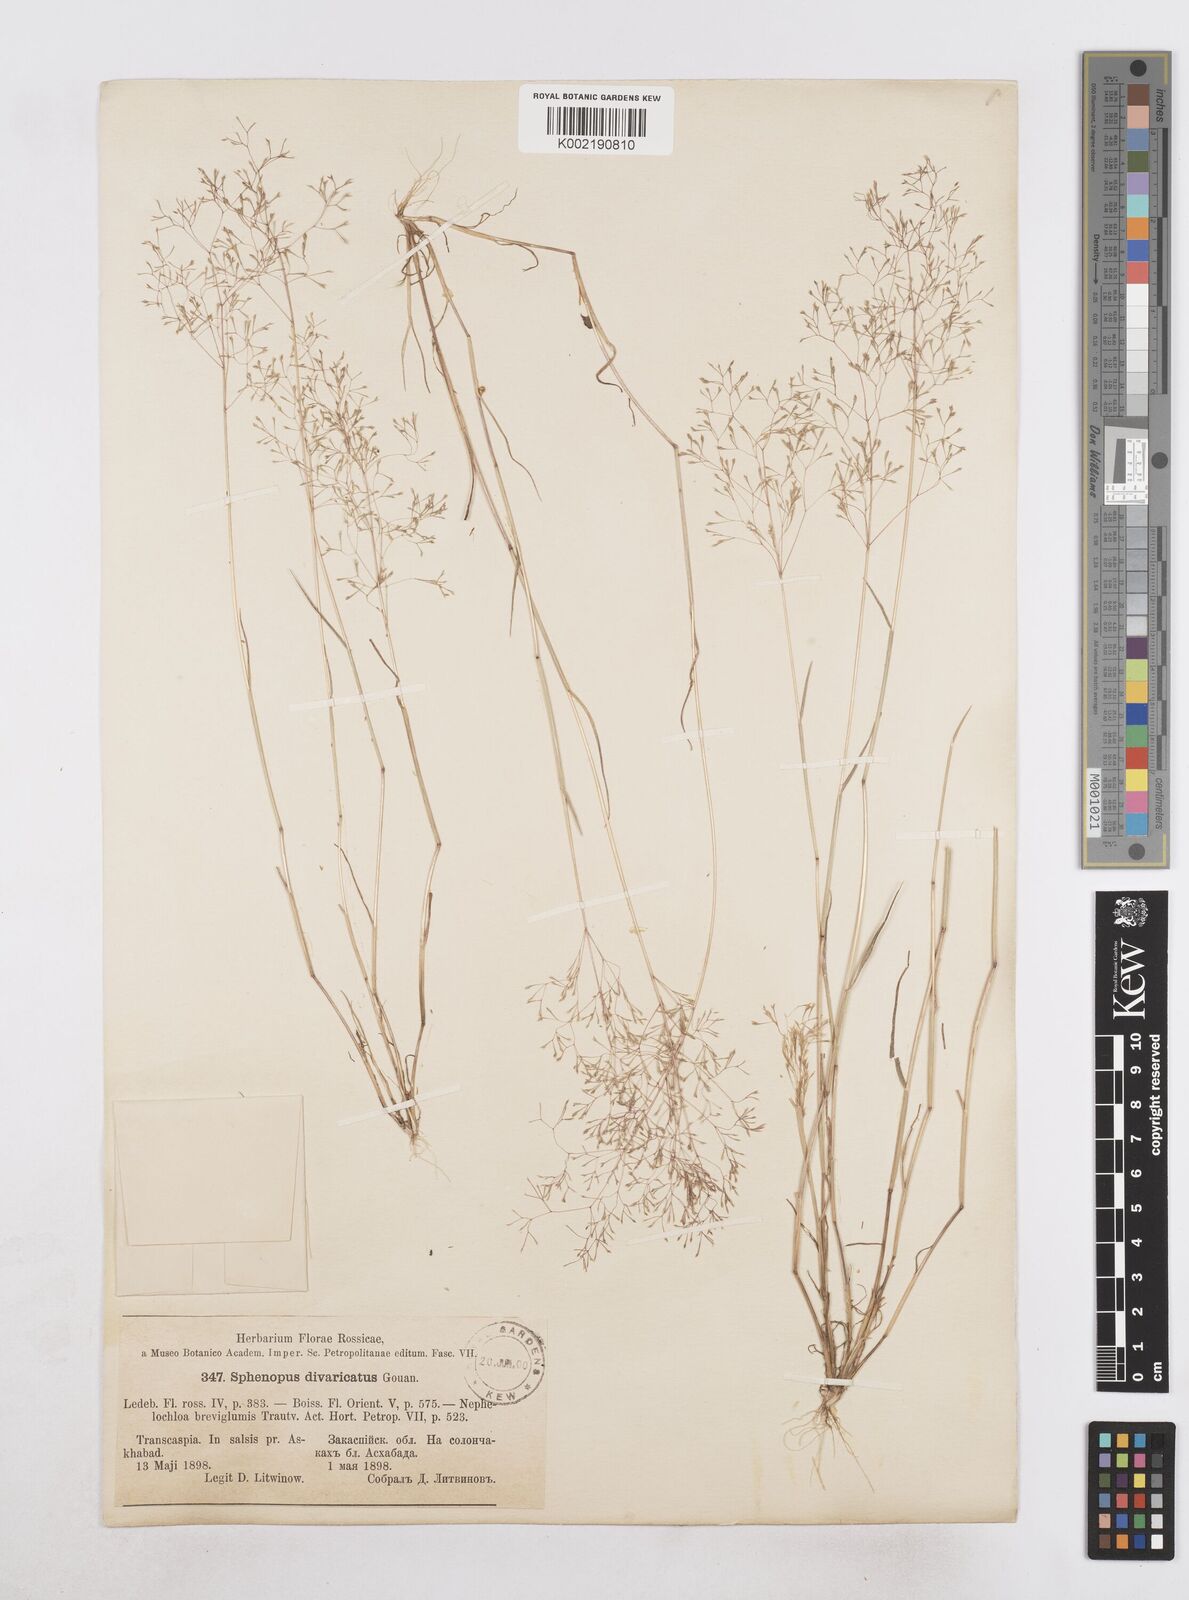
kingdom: Plantae
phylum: Tracheophyta
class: Liliopsida
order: Poales
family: Poaceae
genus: Sphenopus
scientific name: Sphenopus divaricatus
